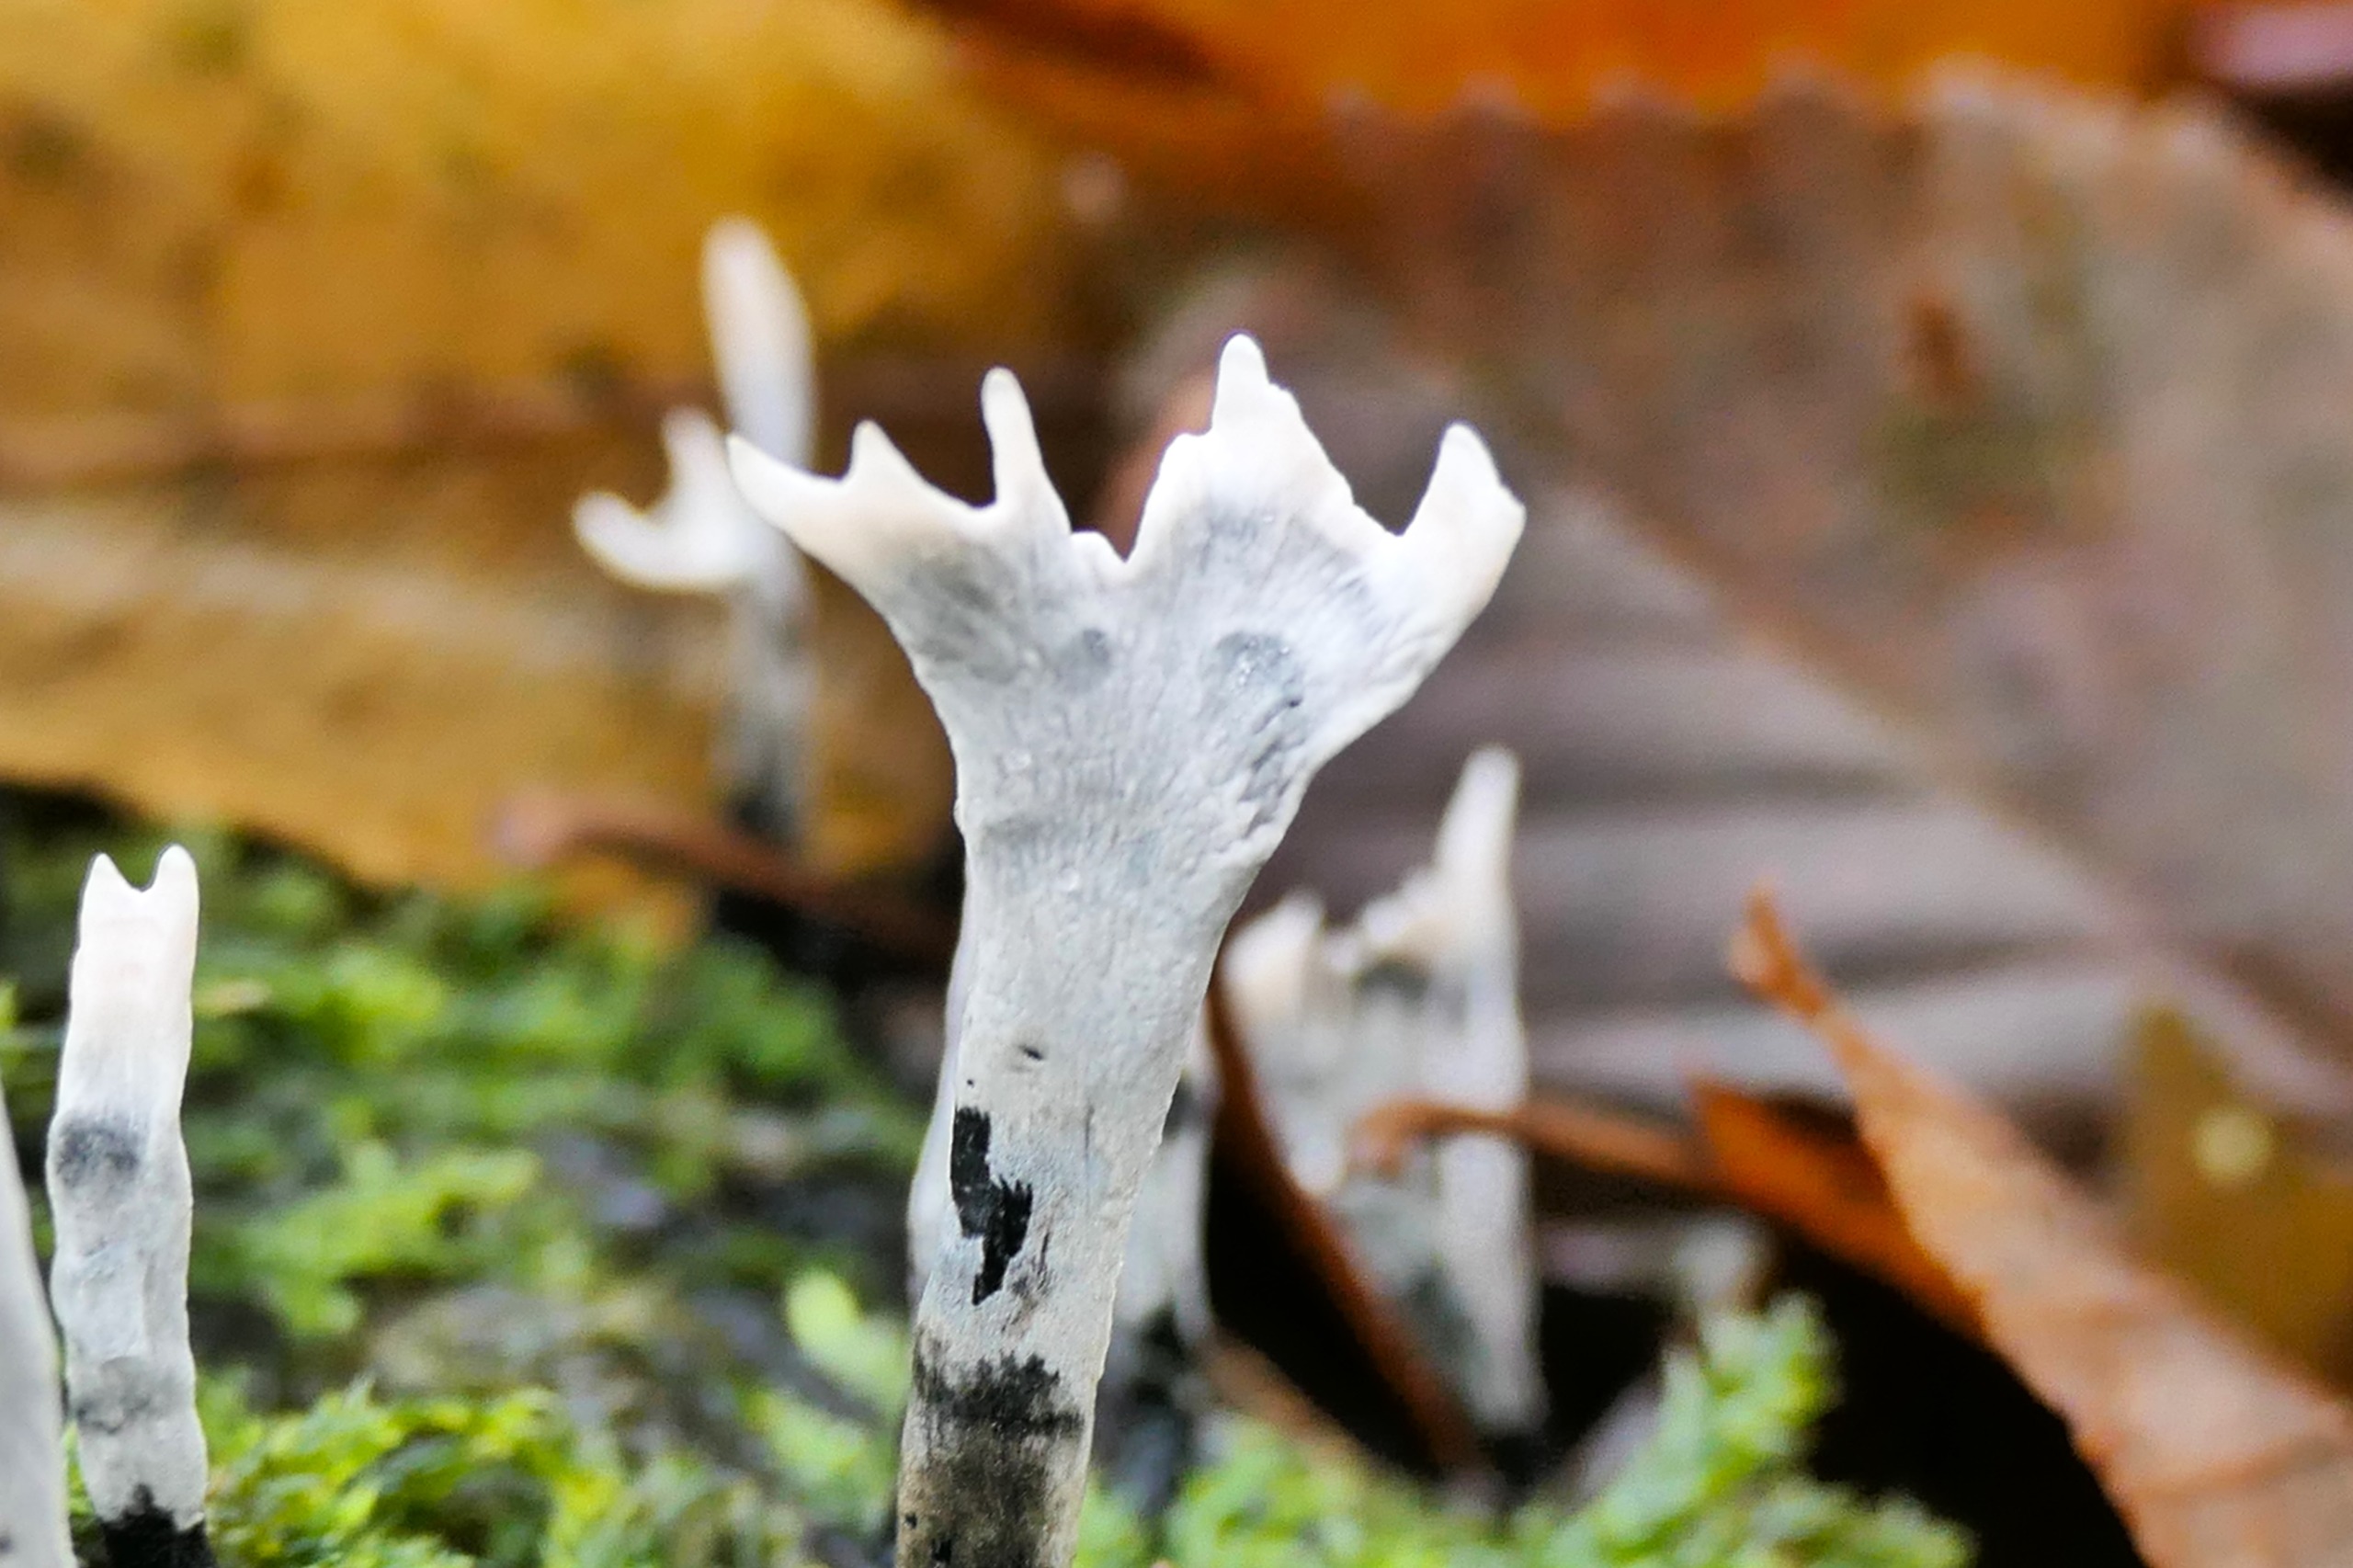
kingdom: Fungi
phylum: Ascomycota
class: Sordariomycetes
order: Xylariales
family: Xylariaceae
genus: Xylaria
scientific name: Xylaria hypoxylon
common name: Grenet stødsvamp
